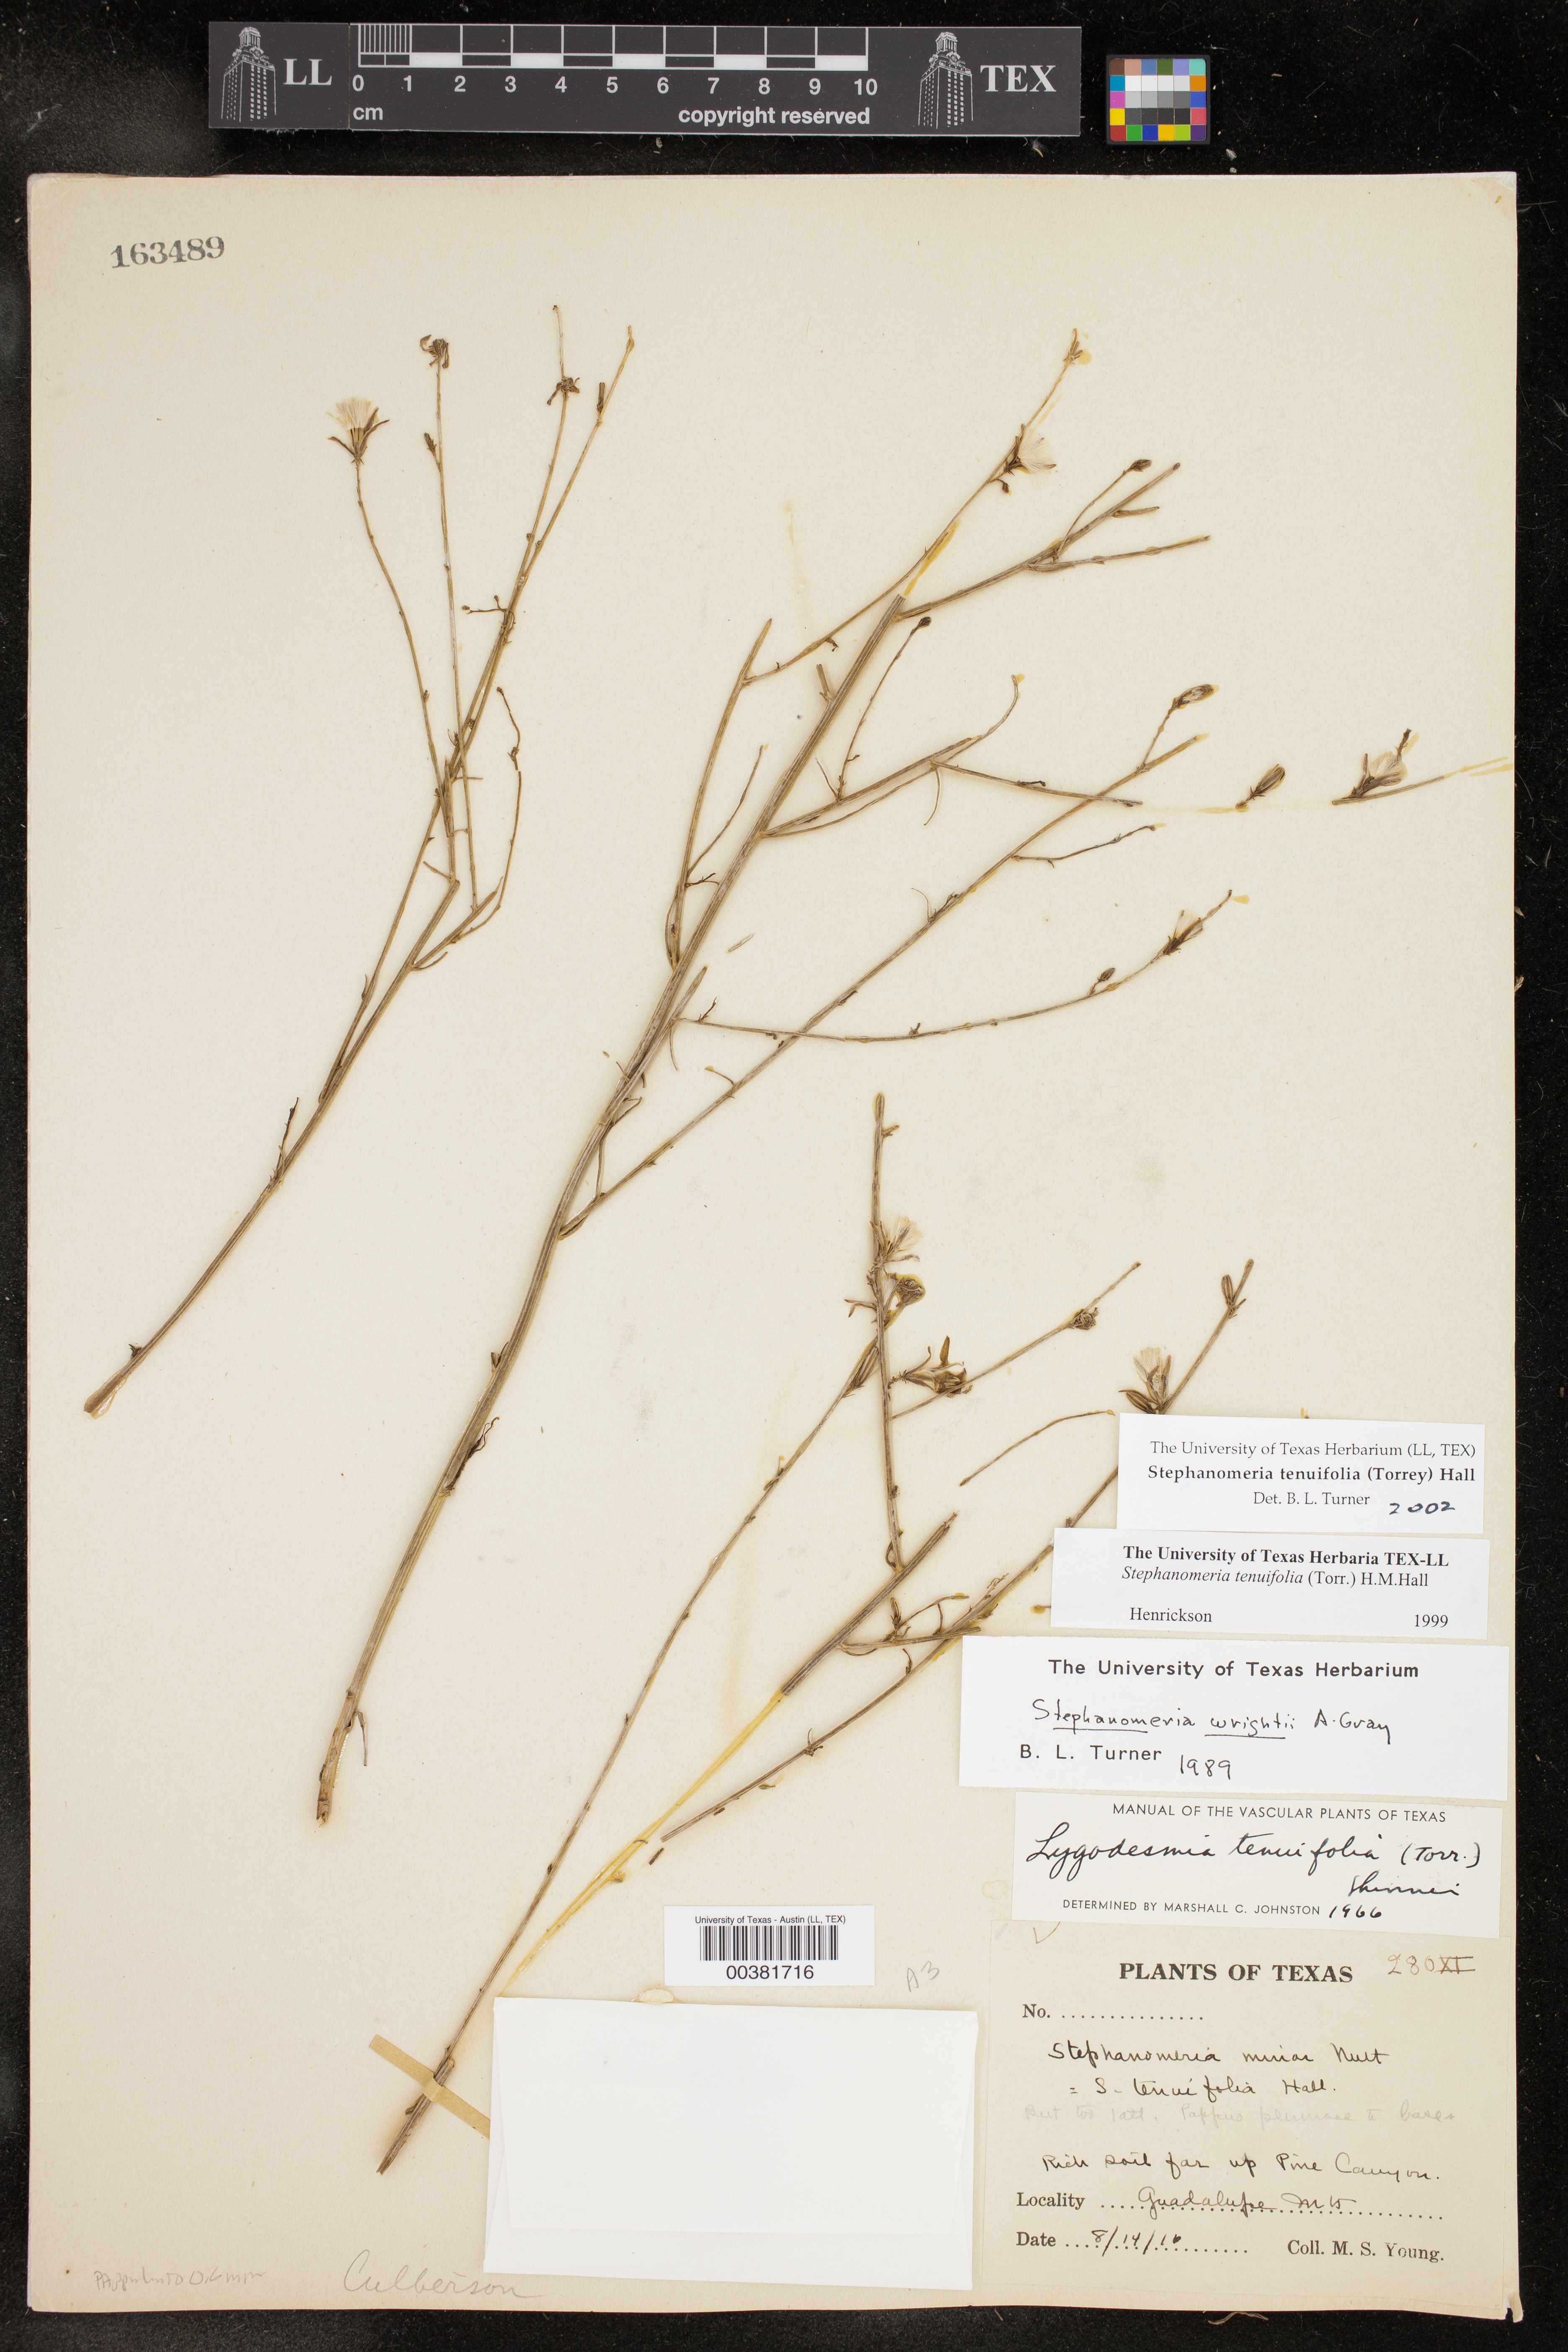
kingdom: Plantae
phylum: Tracheophyta
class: Magnoliopsida
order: Asterales
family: Asteraceae
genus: Stephanomeria
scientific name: Stephanomeria tenuifolia
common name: Slender wirelettuce
